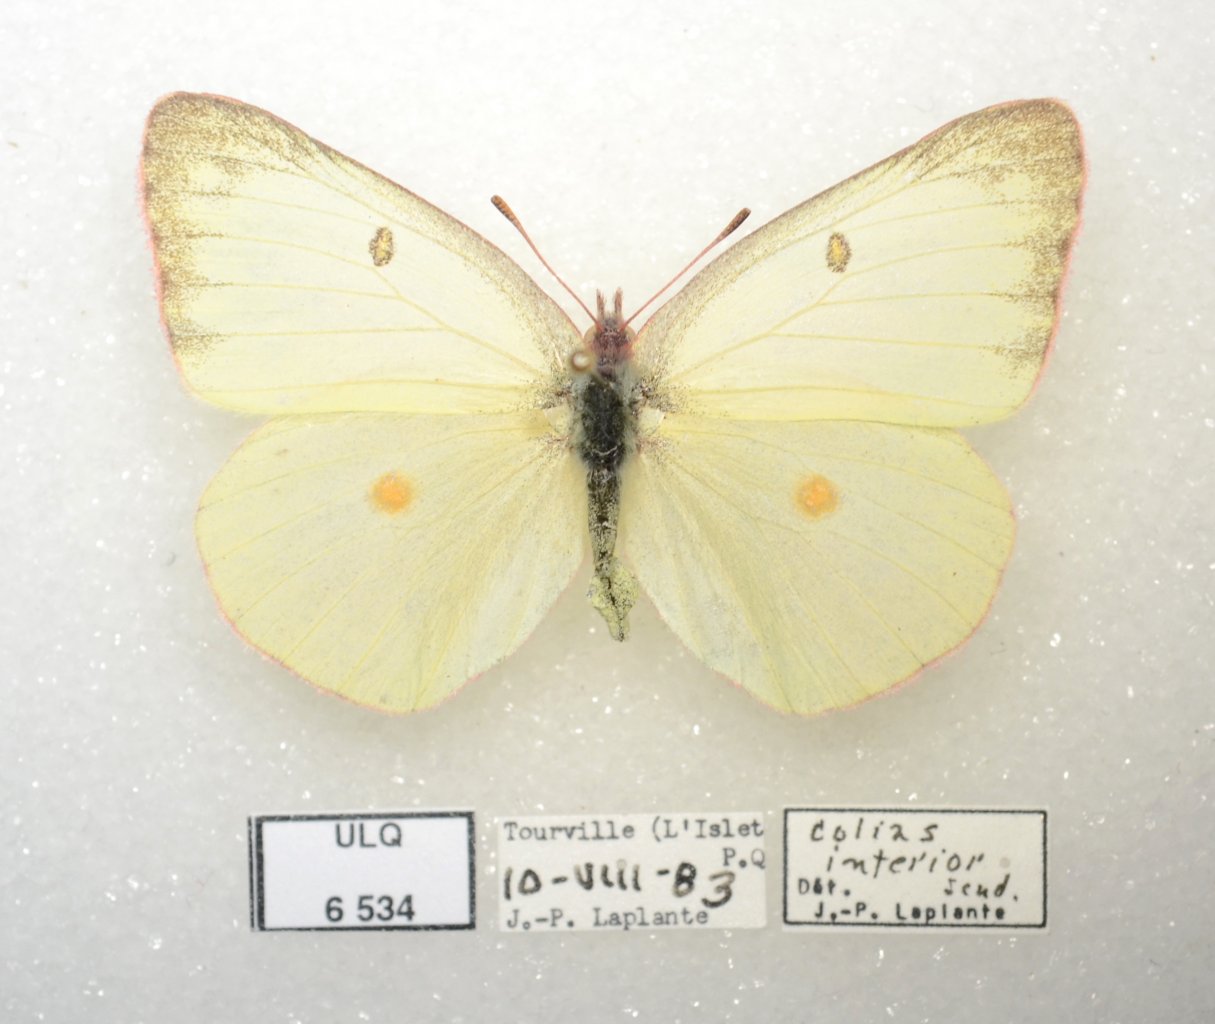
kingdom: Animalia
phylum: Arthropoda
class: Insecta
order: Lepidoptera
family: Pieridae
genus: Colias
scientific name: Colias interior
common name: Pink-edged Sulphur
